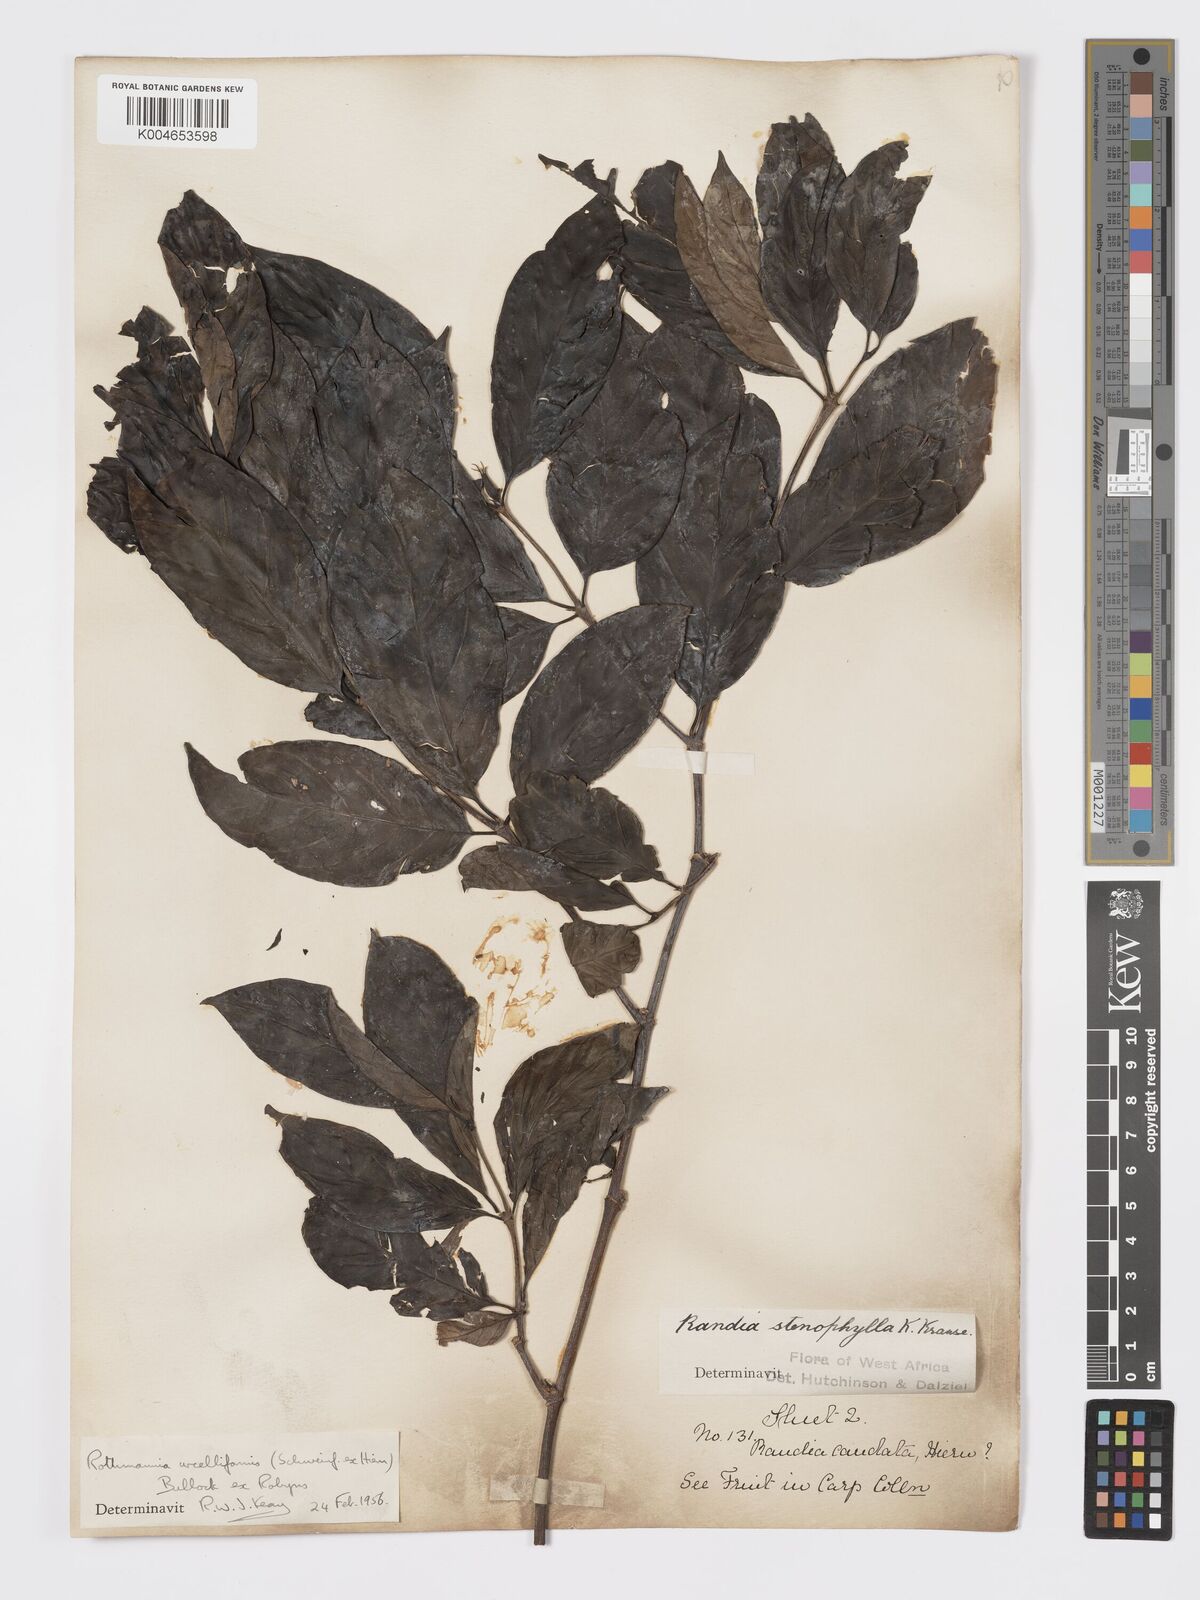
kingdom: Plantae
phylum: Tracheophyta
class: Magnoliopsida
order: Gentianales
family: Rubiaceae
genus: Rothmannia
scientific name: Rothmannia urcelliformis
